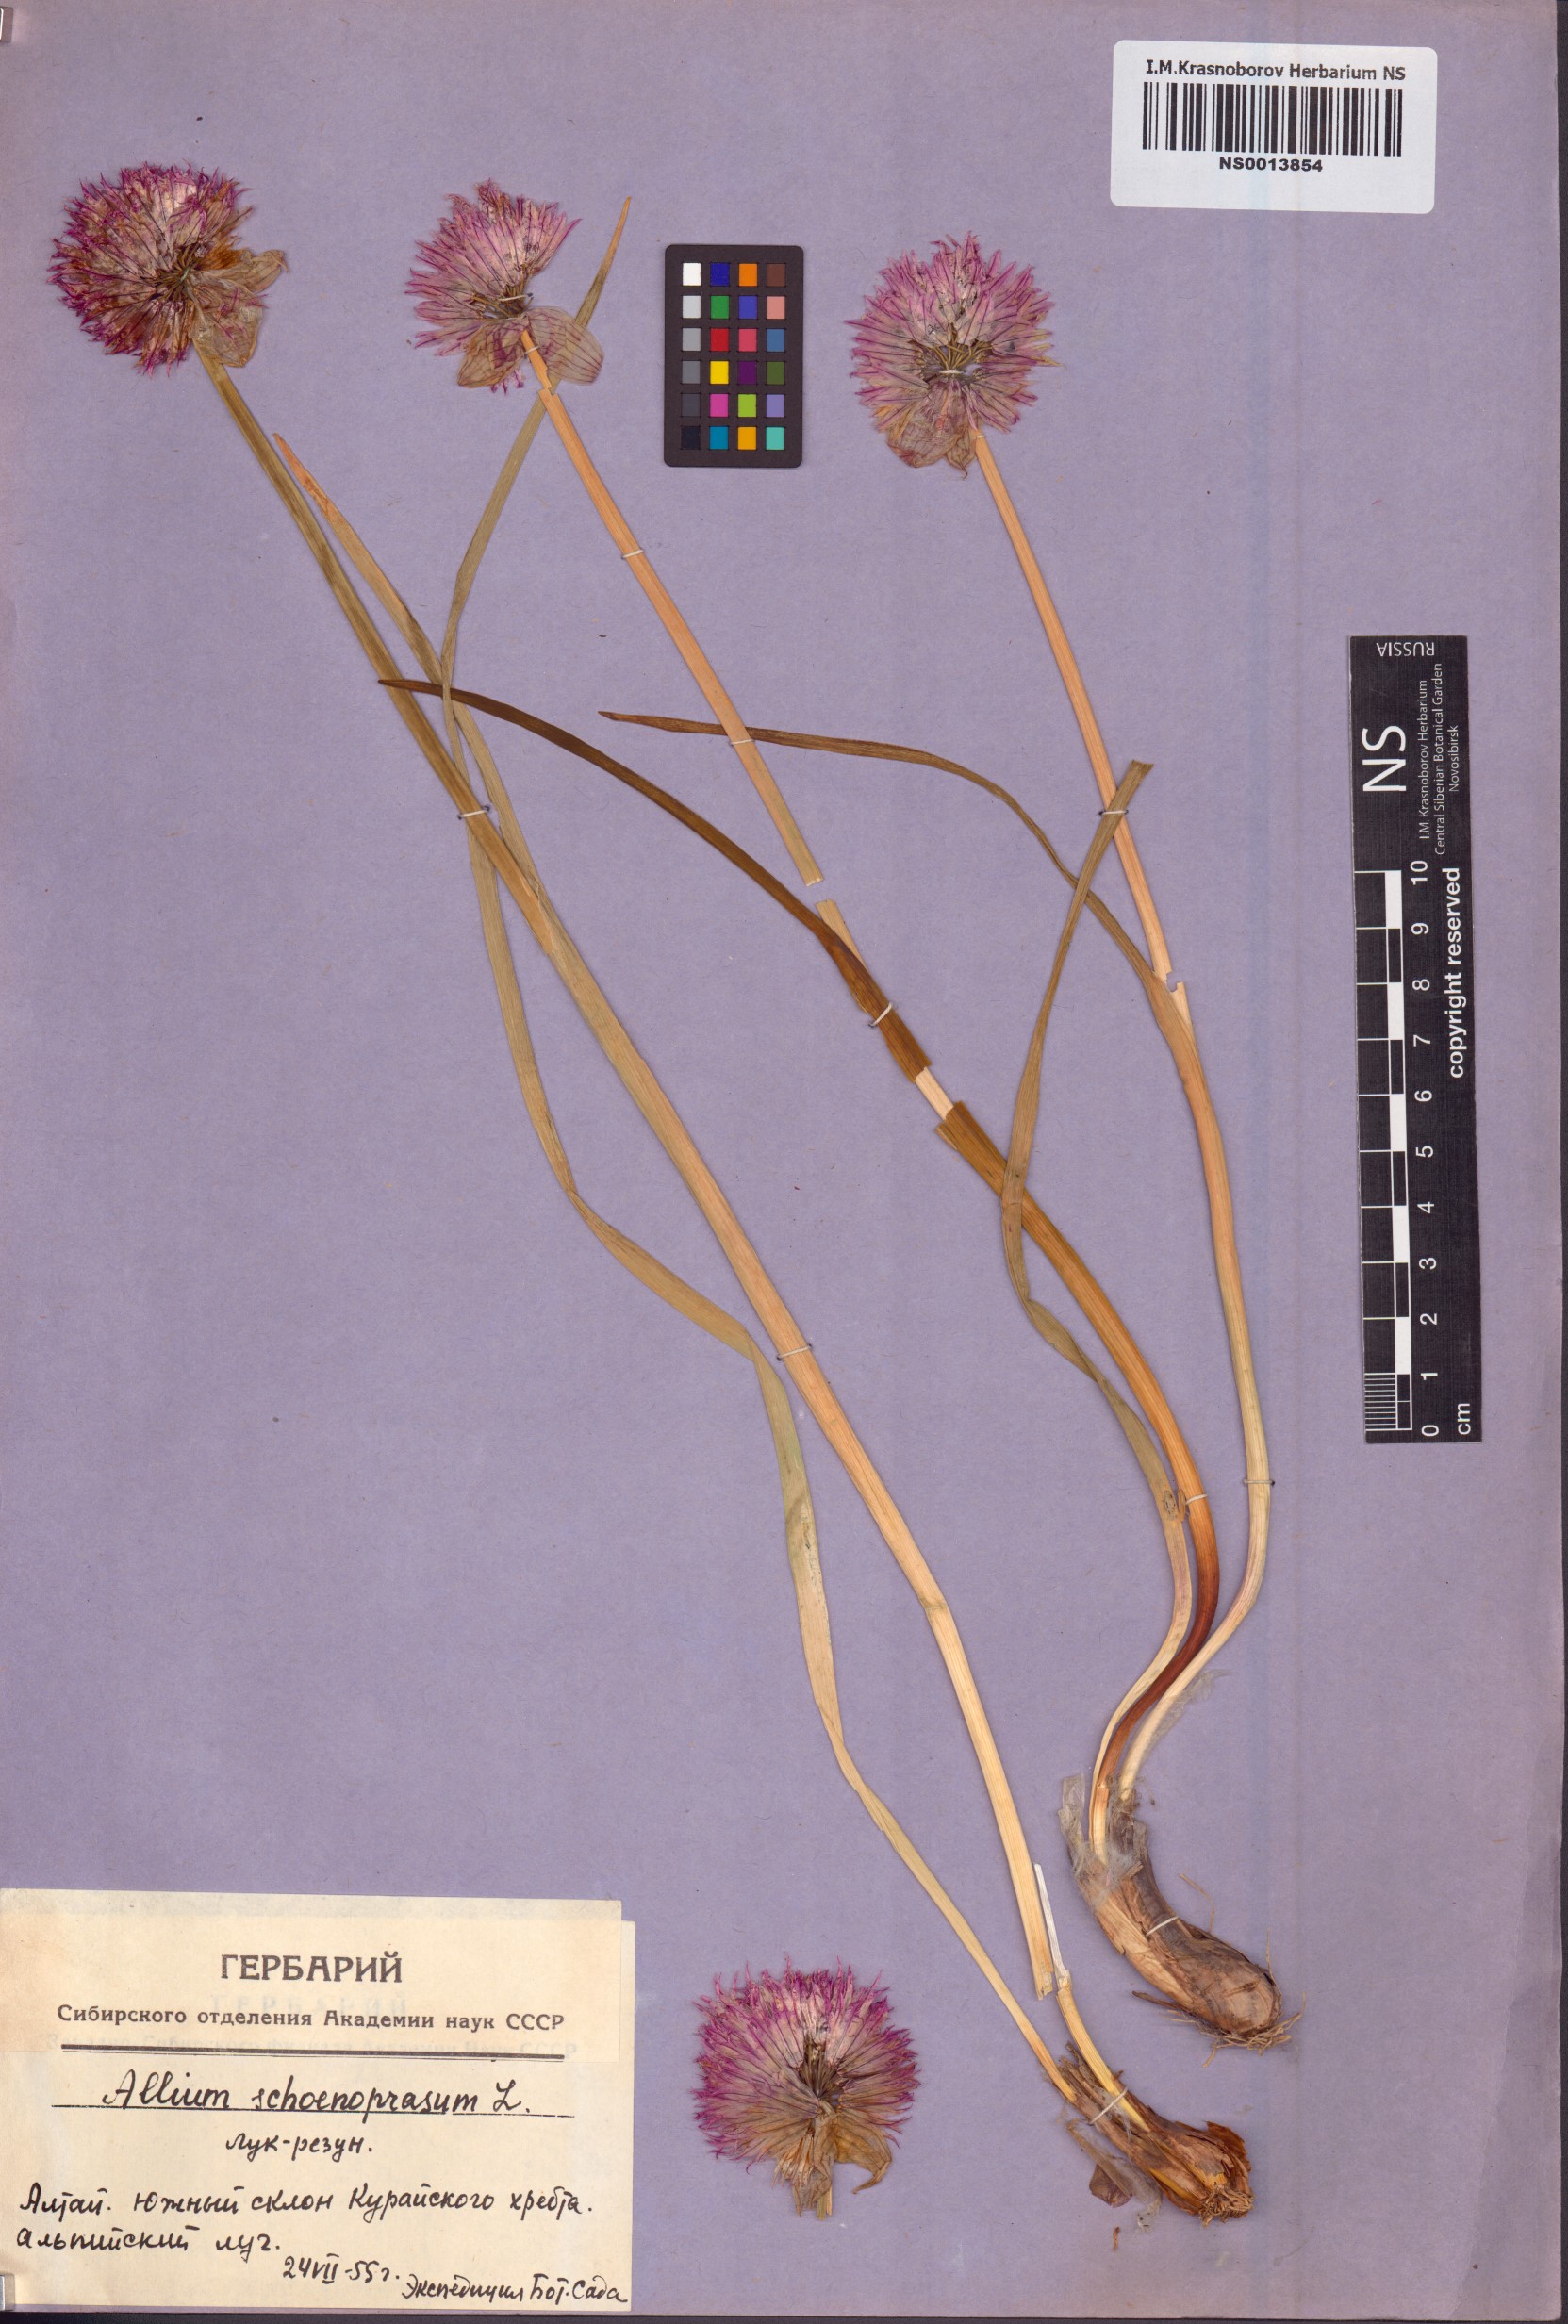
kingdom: Plantae
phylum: Tracheophyta
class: Liliopsida
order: Asparagales
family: Amaryllidaceae
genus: Allium
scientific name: Allium schoenoprasum
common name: Chives
